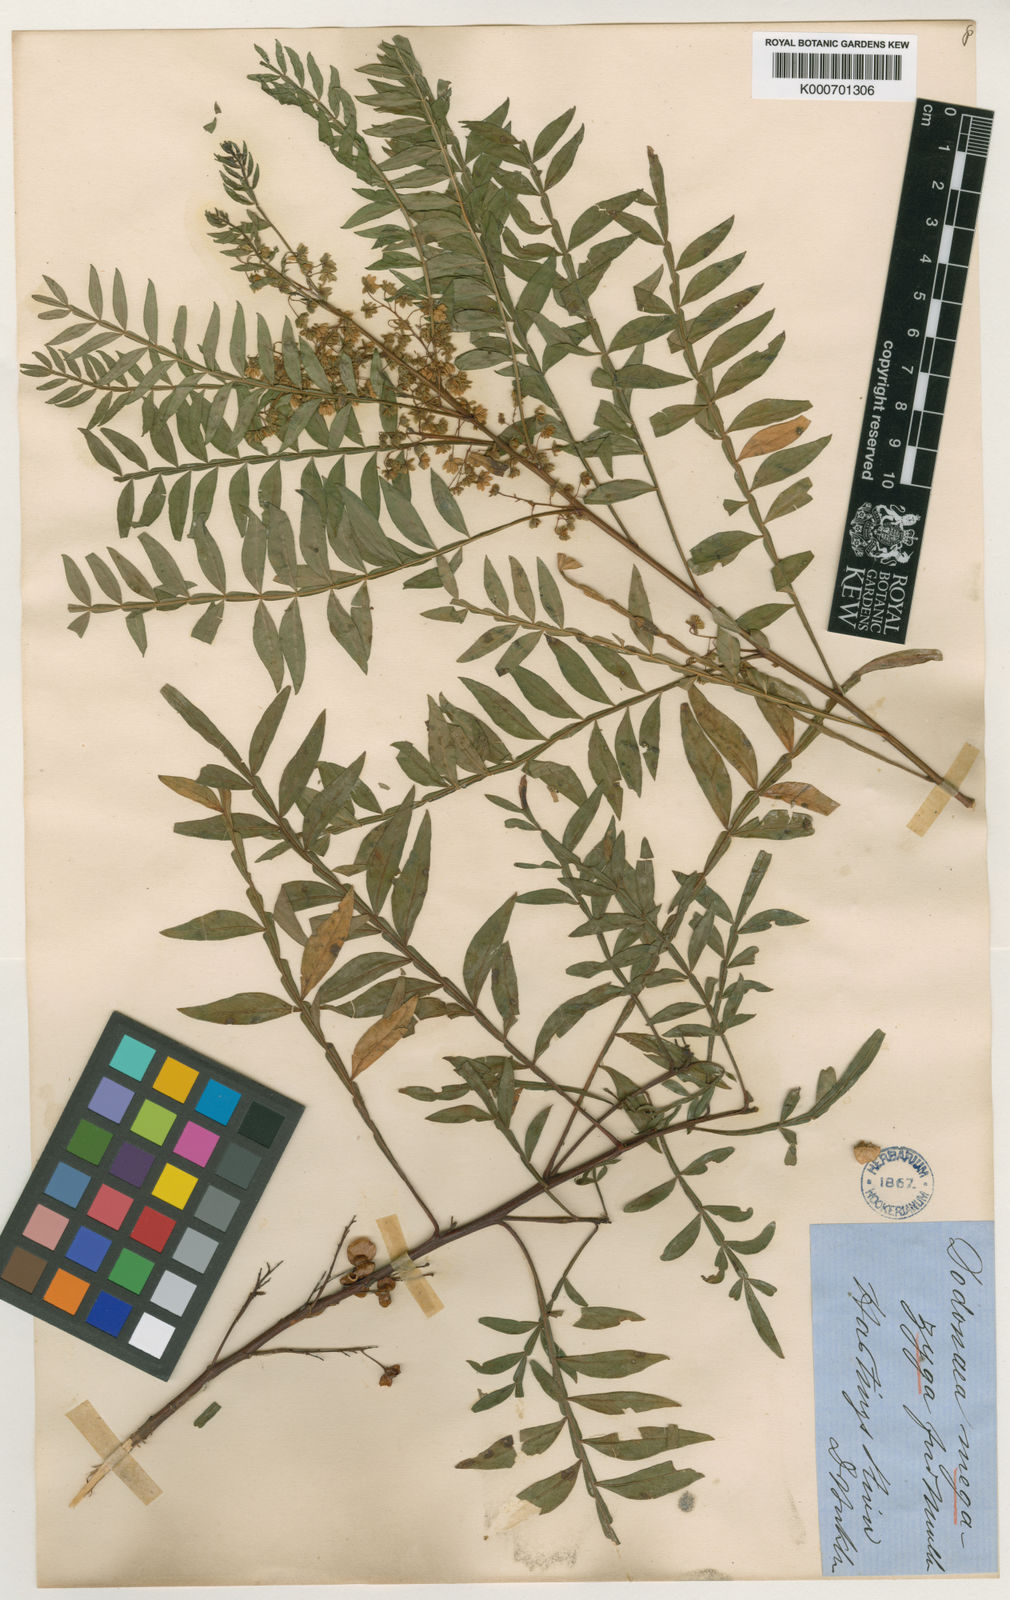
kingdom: Plantae
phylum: Tracheophyta
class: Magnoliopsida
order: Sapindales
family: Sapindaceae
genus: Dodonaea
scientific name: Dodonaea megazyga
